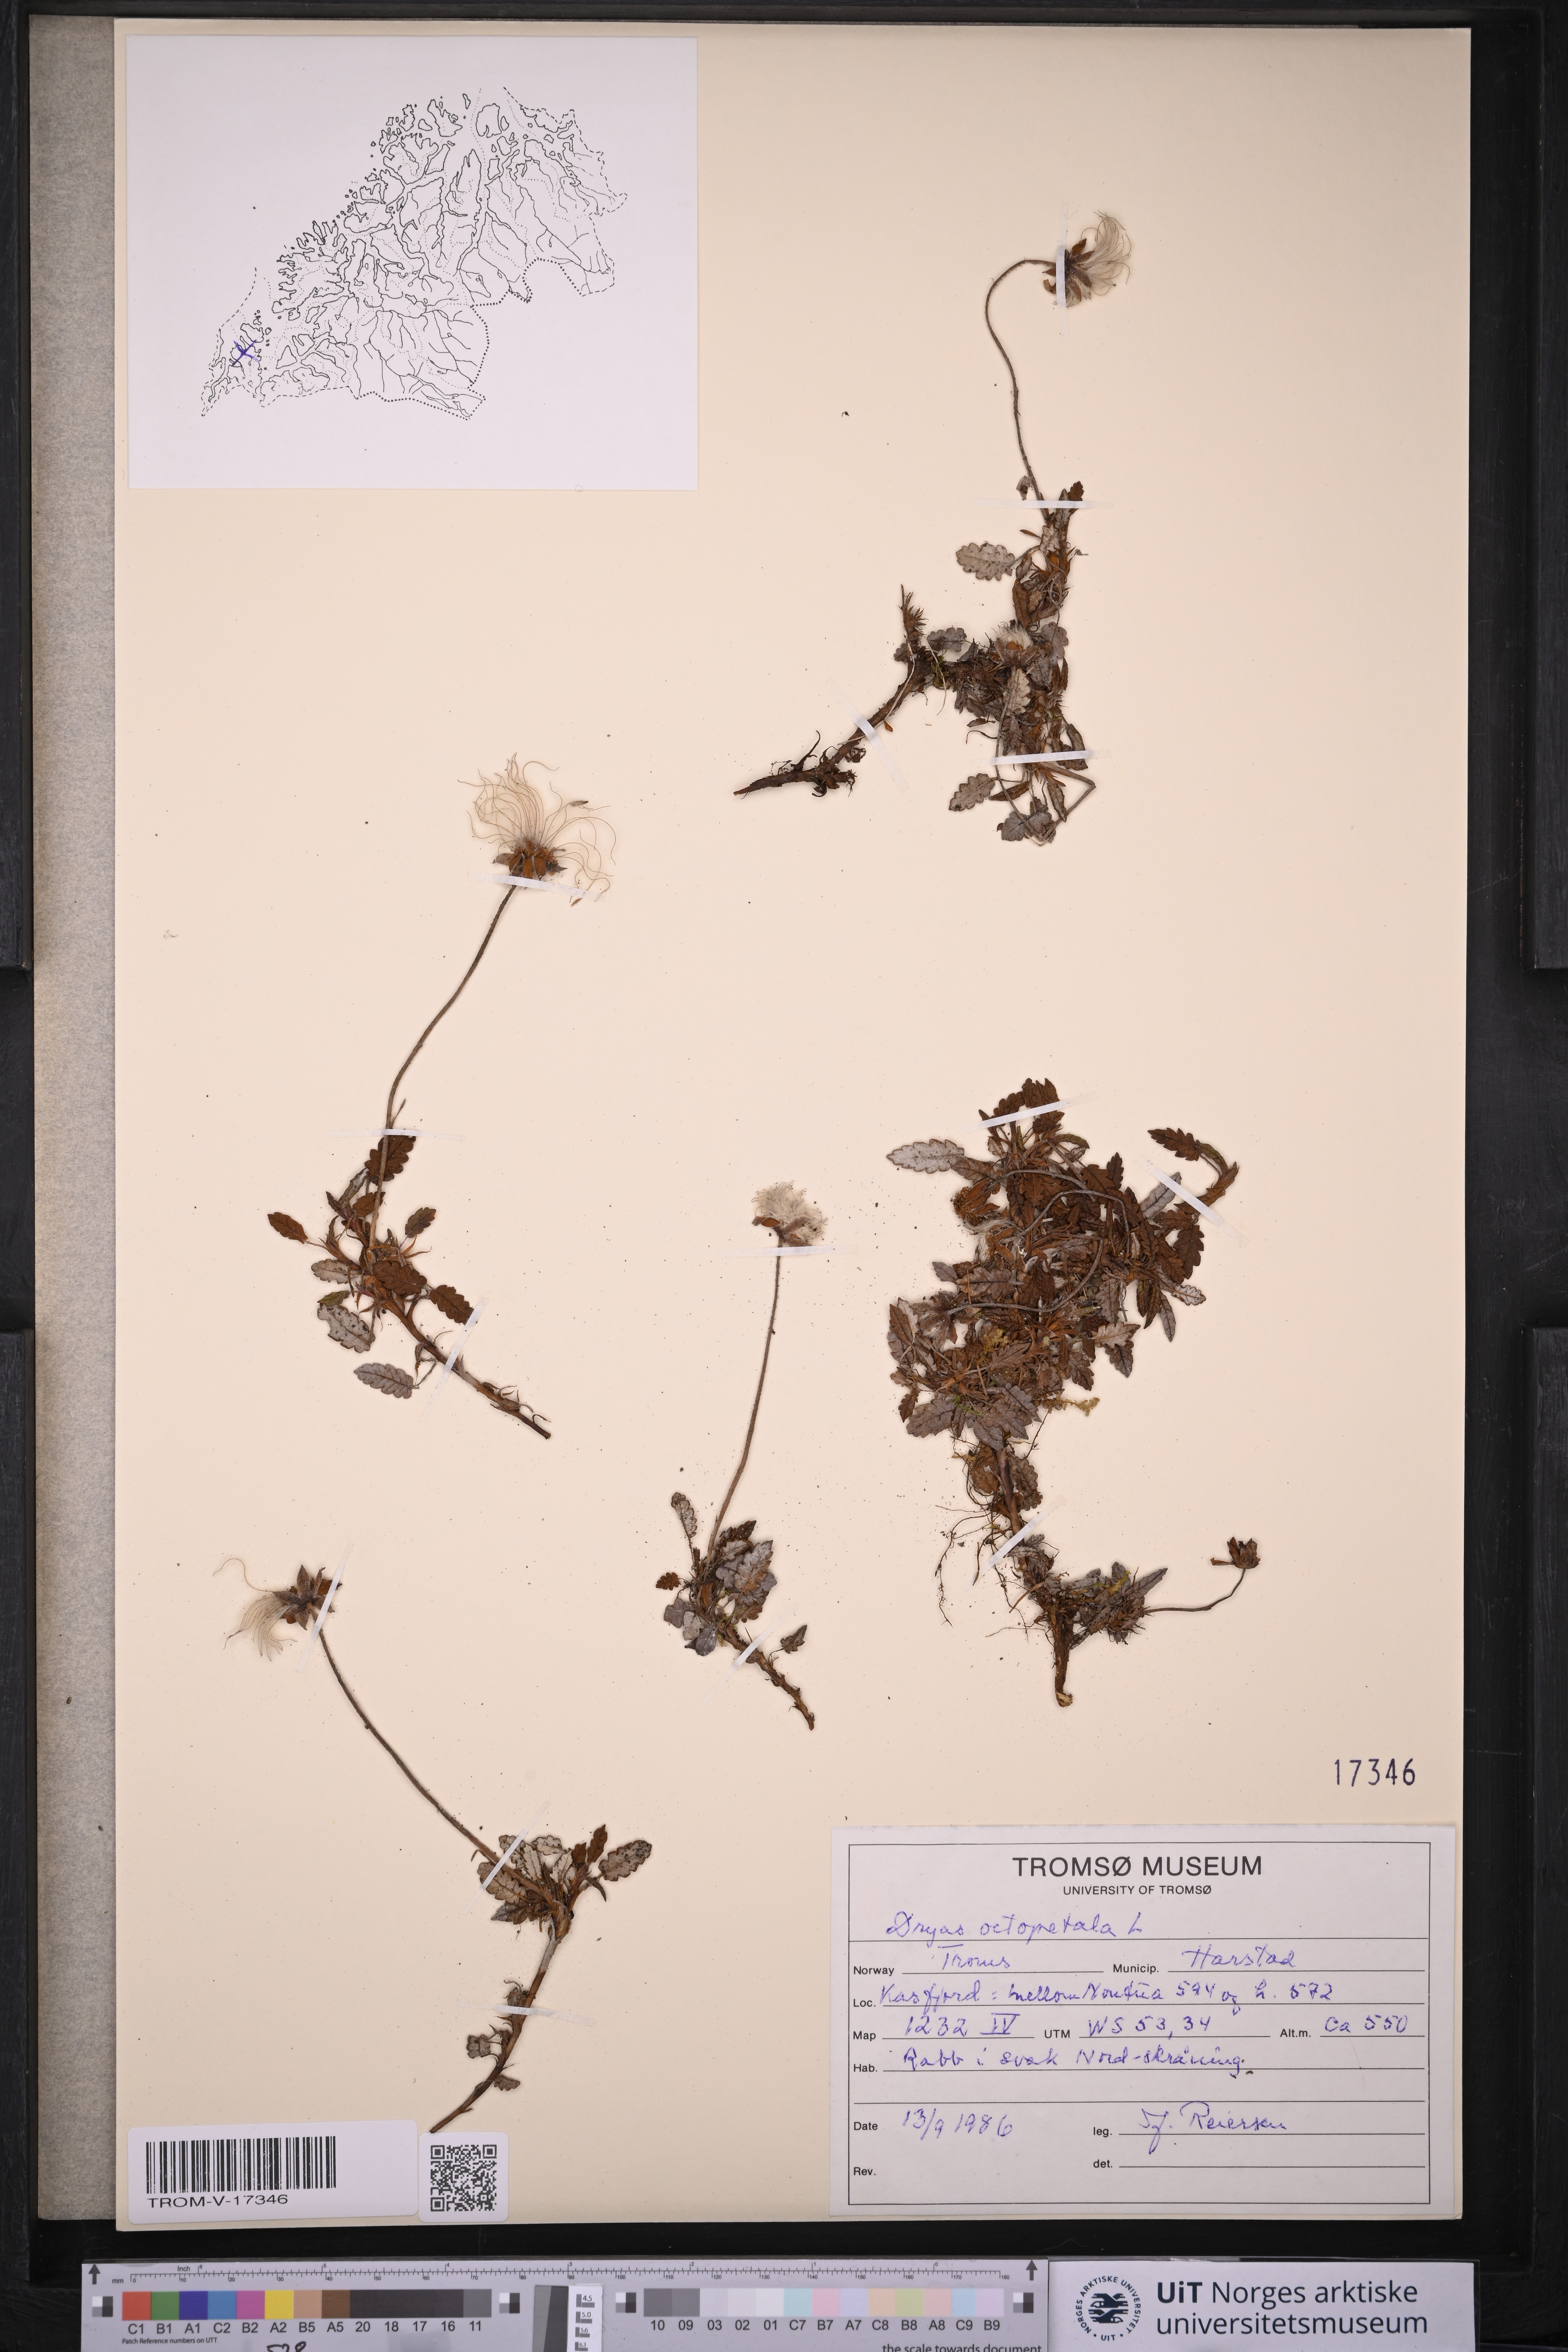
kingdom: Plantae
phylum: Tracheophyta
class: Magnoliopsida
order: Rosales
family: Rosaceae
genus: Dryas
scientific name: Dryas octopetala
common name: Eight-petal mountain-avens
